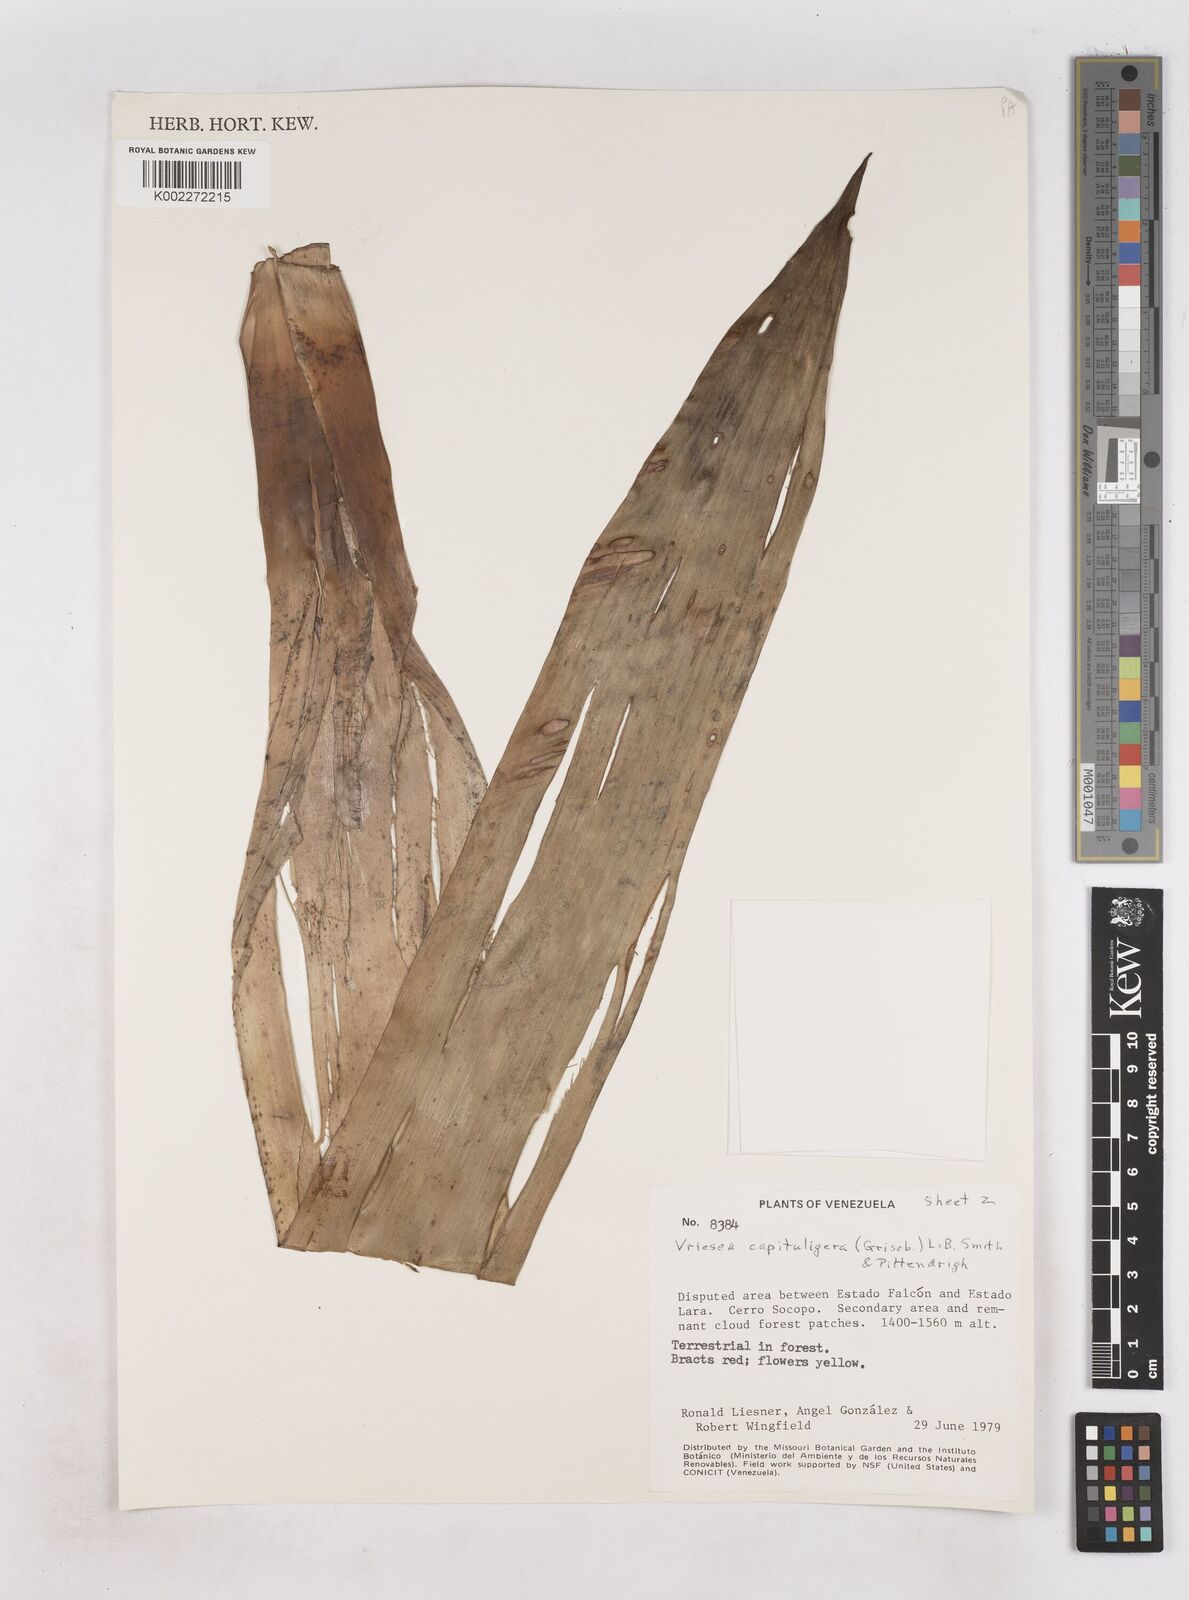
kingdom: Plantae
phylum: Tracheophyta
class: Liliopsida
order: Poales
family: Bromeliaceae
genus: Cipuropsis
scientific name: Cipuropsis capituligera
